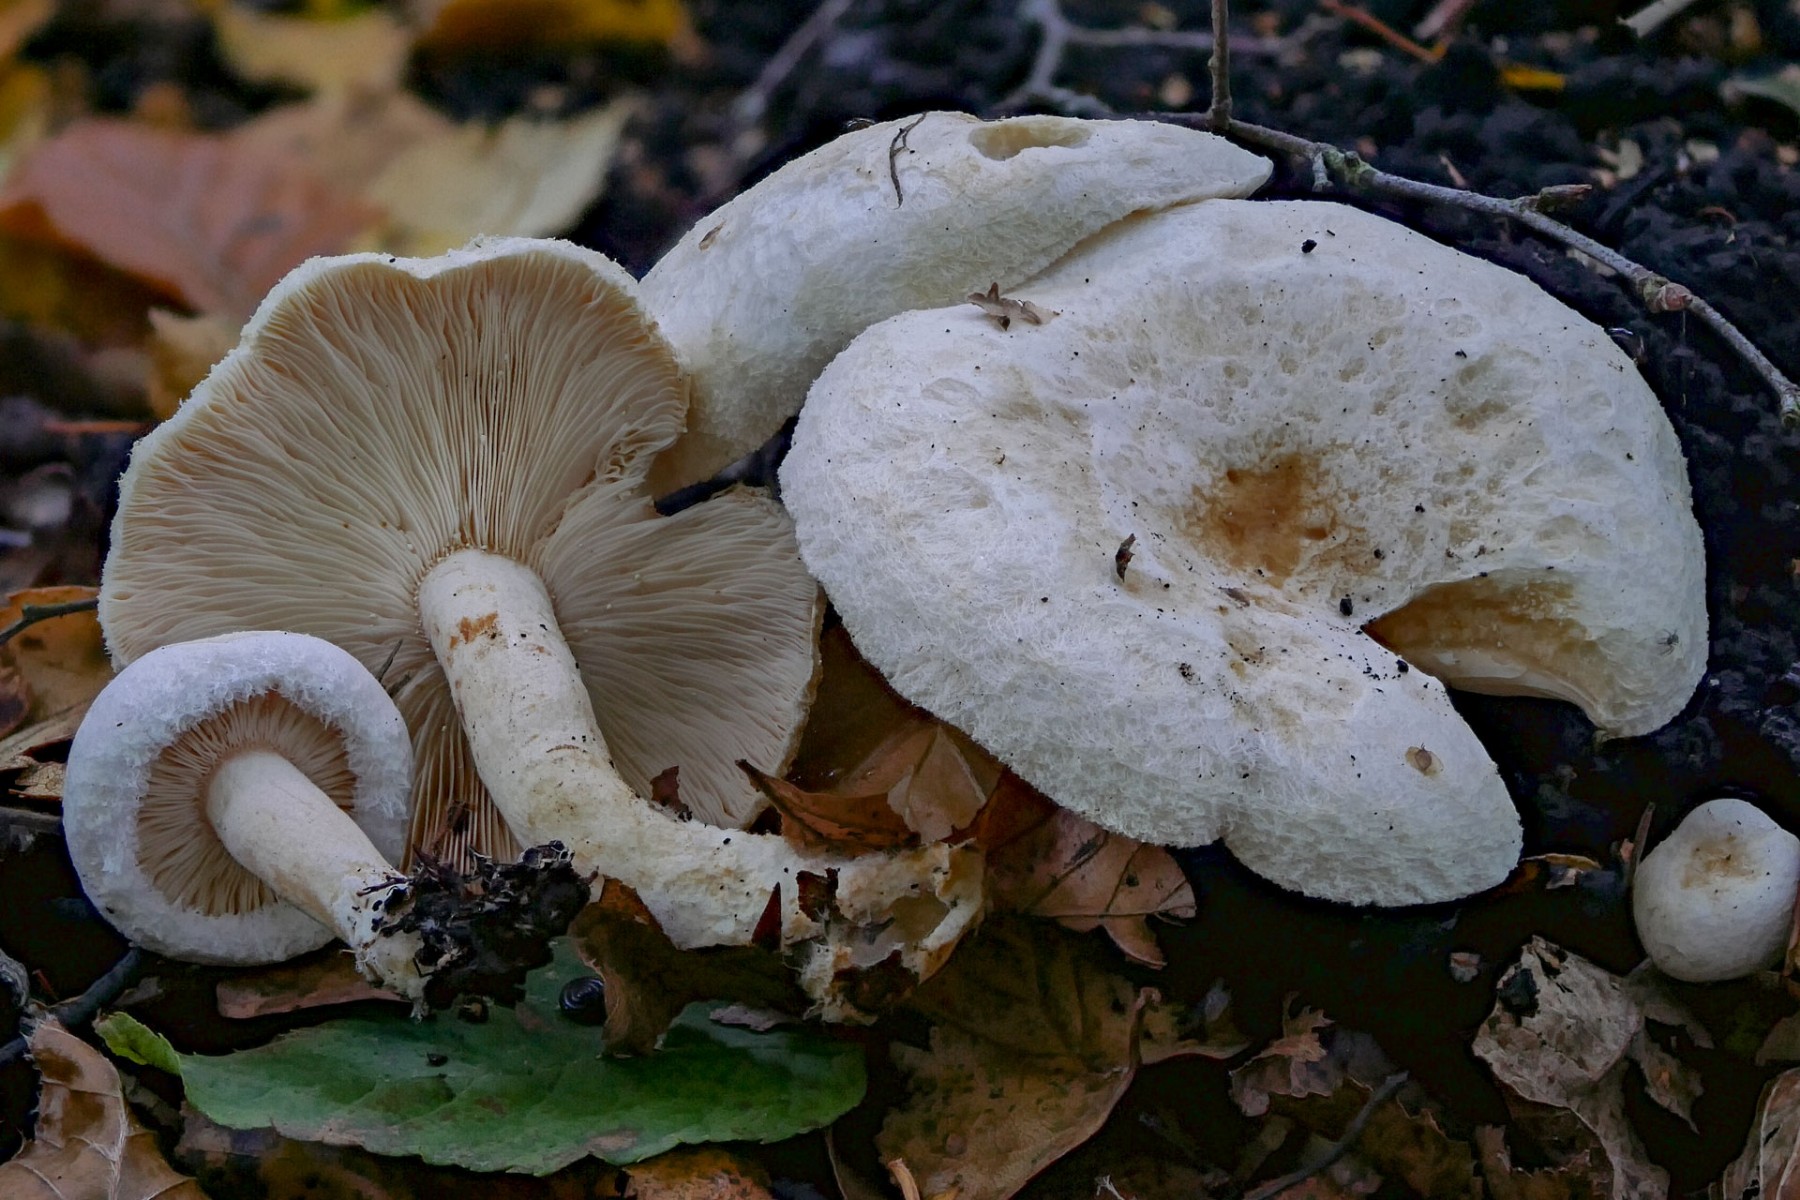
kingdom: Fungi
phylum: Basidiomycota
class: Agaricomycetes
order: Russulales
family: Russulaceae
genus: Lactarius
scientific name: Lactarius scoticus
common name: tørve-mælkehat
